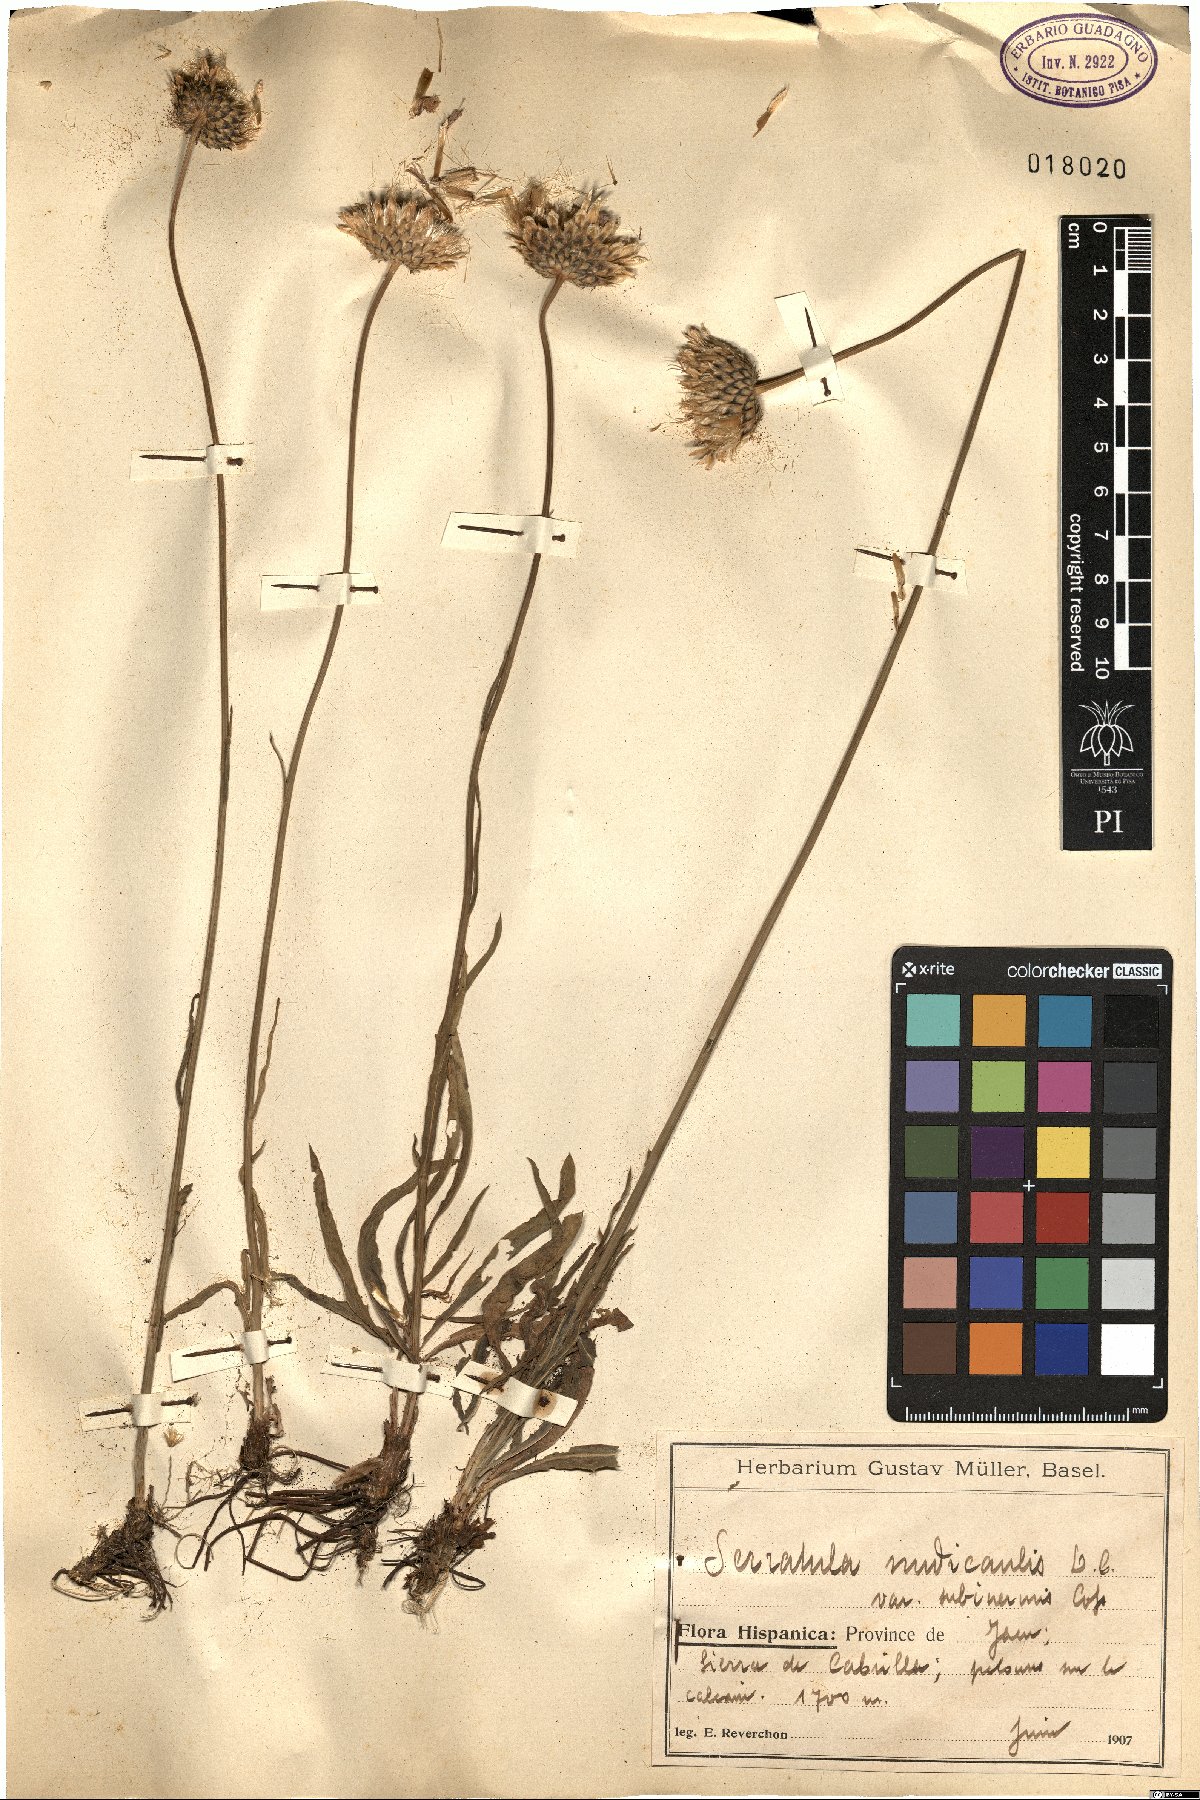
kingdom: Plantae
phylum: Tracheophyta
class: Magnoliopsida
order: Asterales
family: Asteraceae
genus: Klasea
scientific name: Klasea nudicaulis
